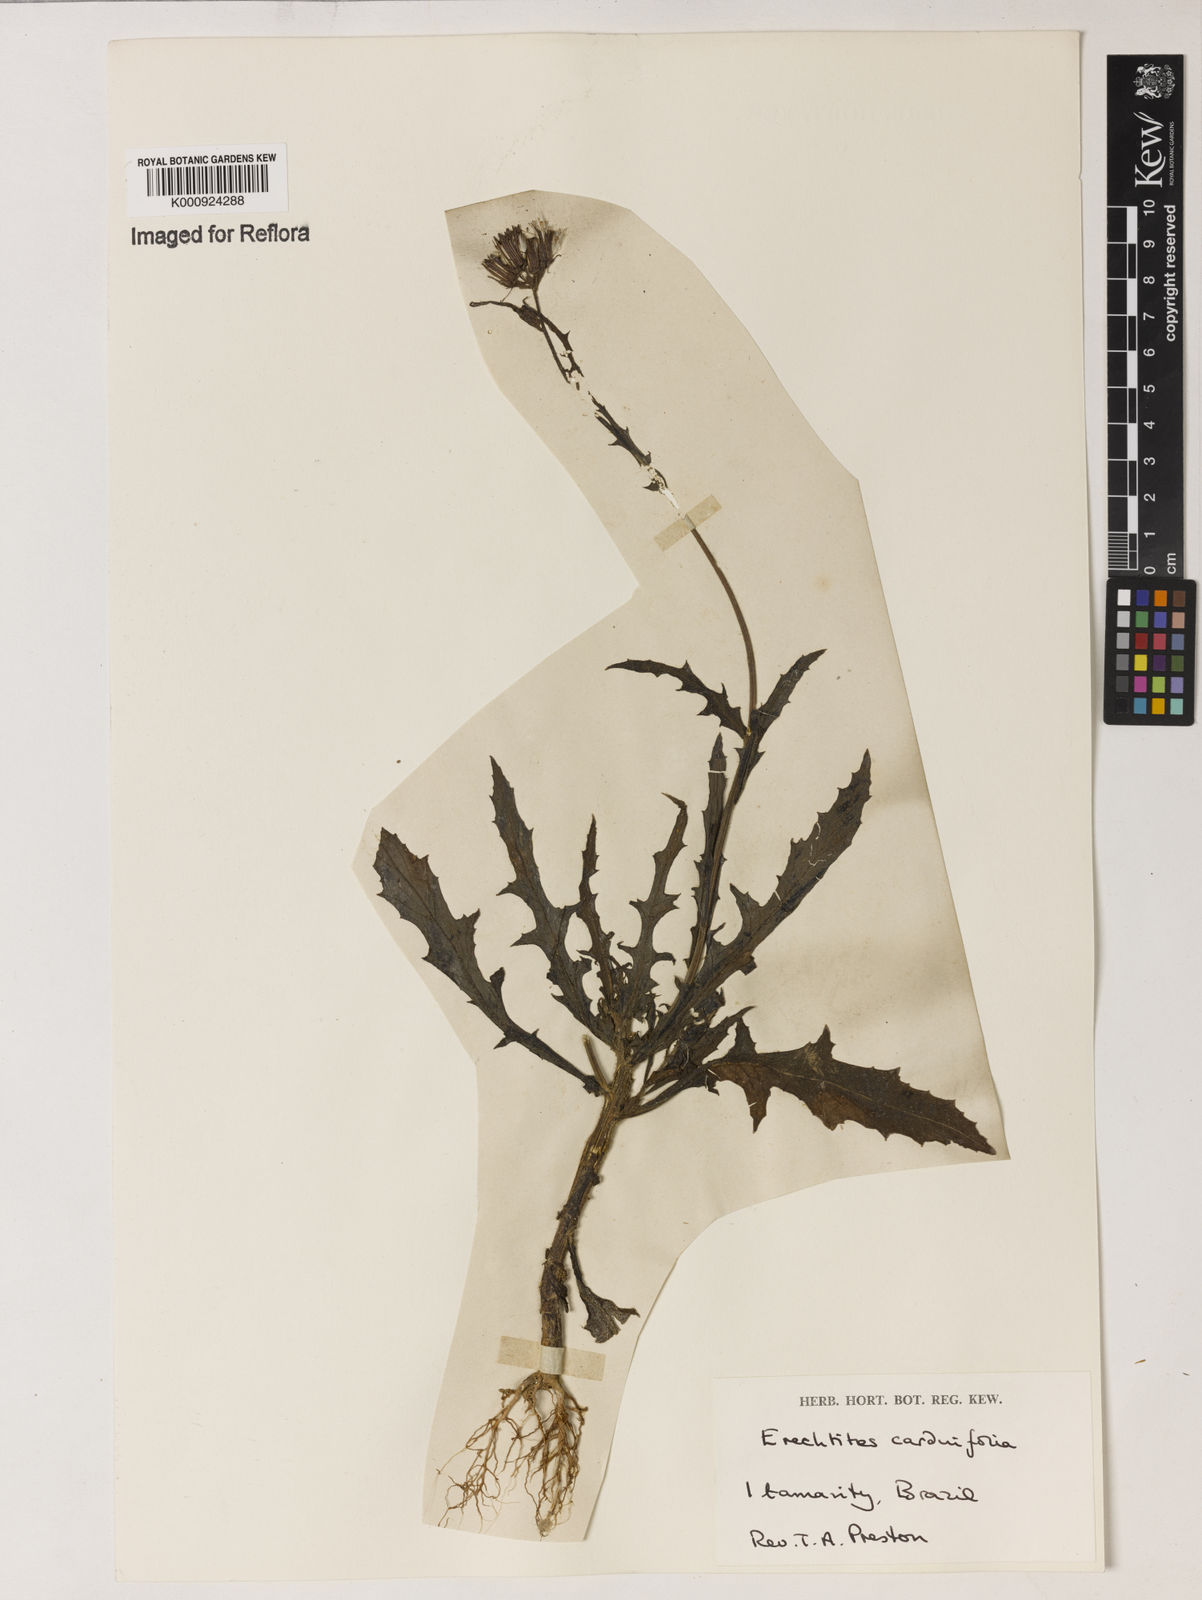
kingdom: Plantae
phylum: Tracheophyta
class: Magnoliopsida
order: Asterales
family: Asteraceae
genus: Erechtites
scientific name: Erechtites hieraciifolius
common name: American burnweed
